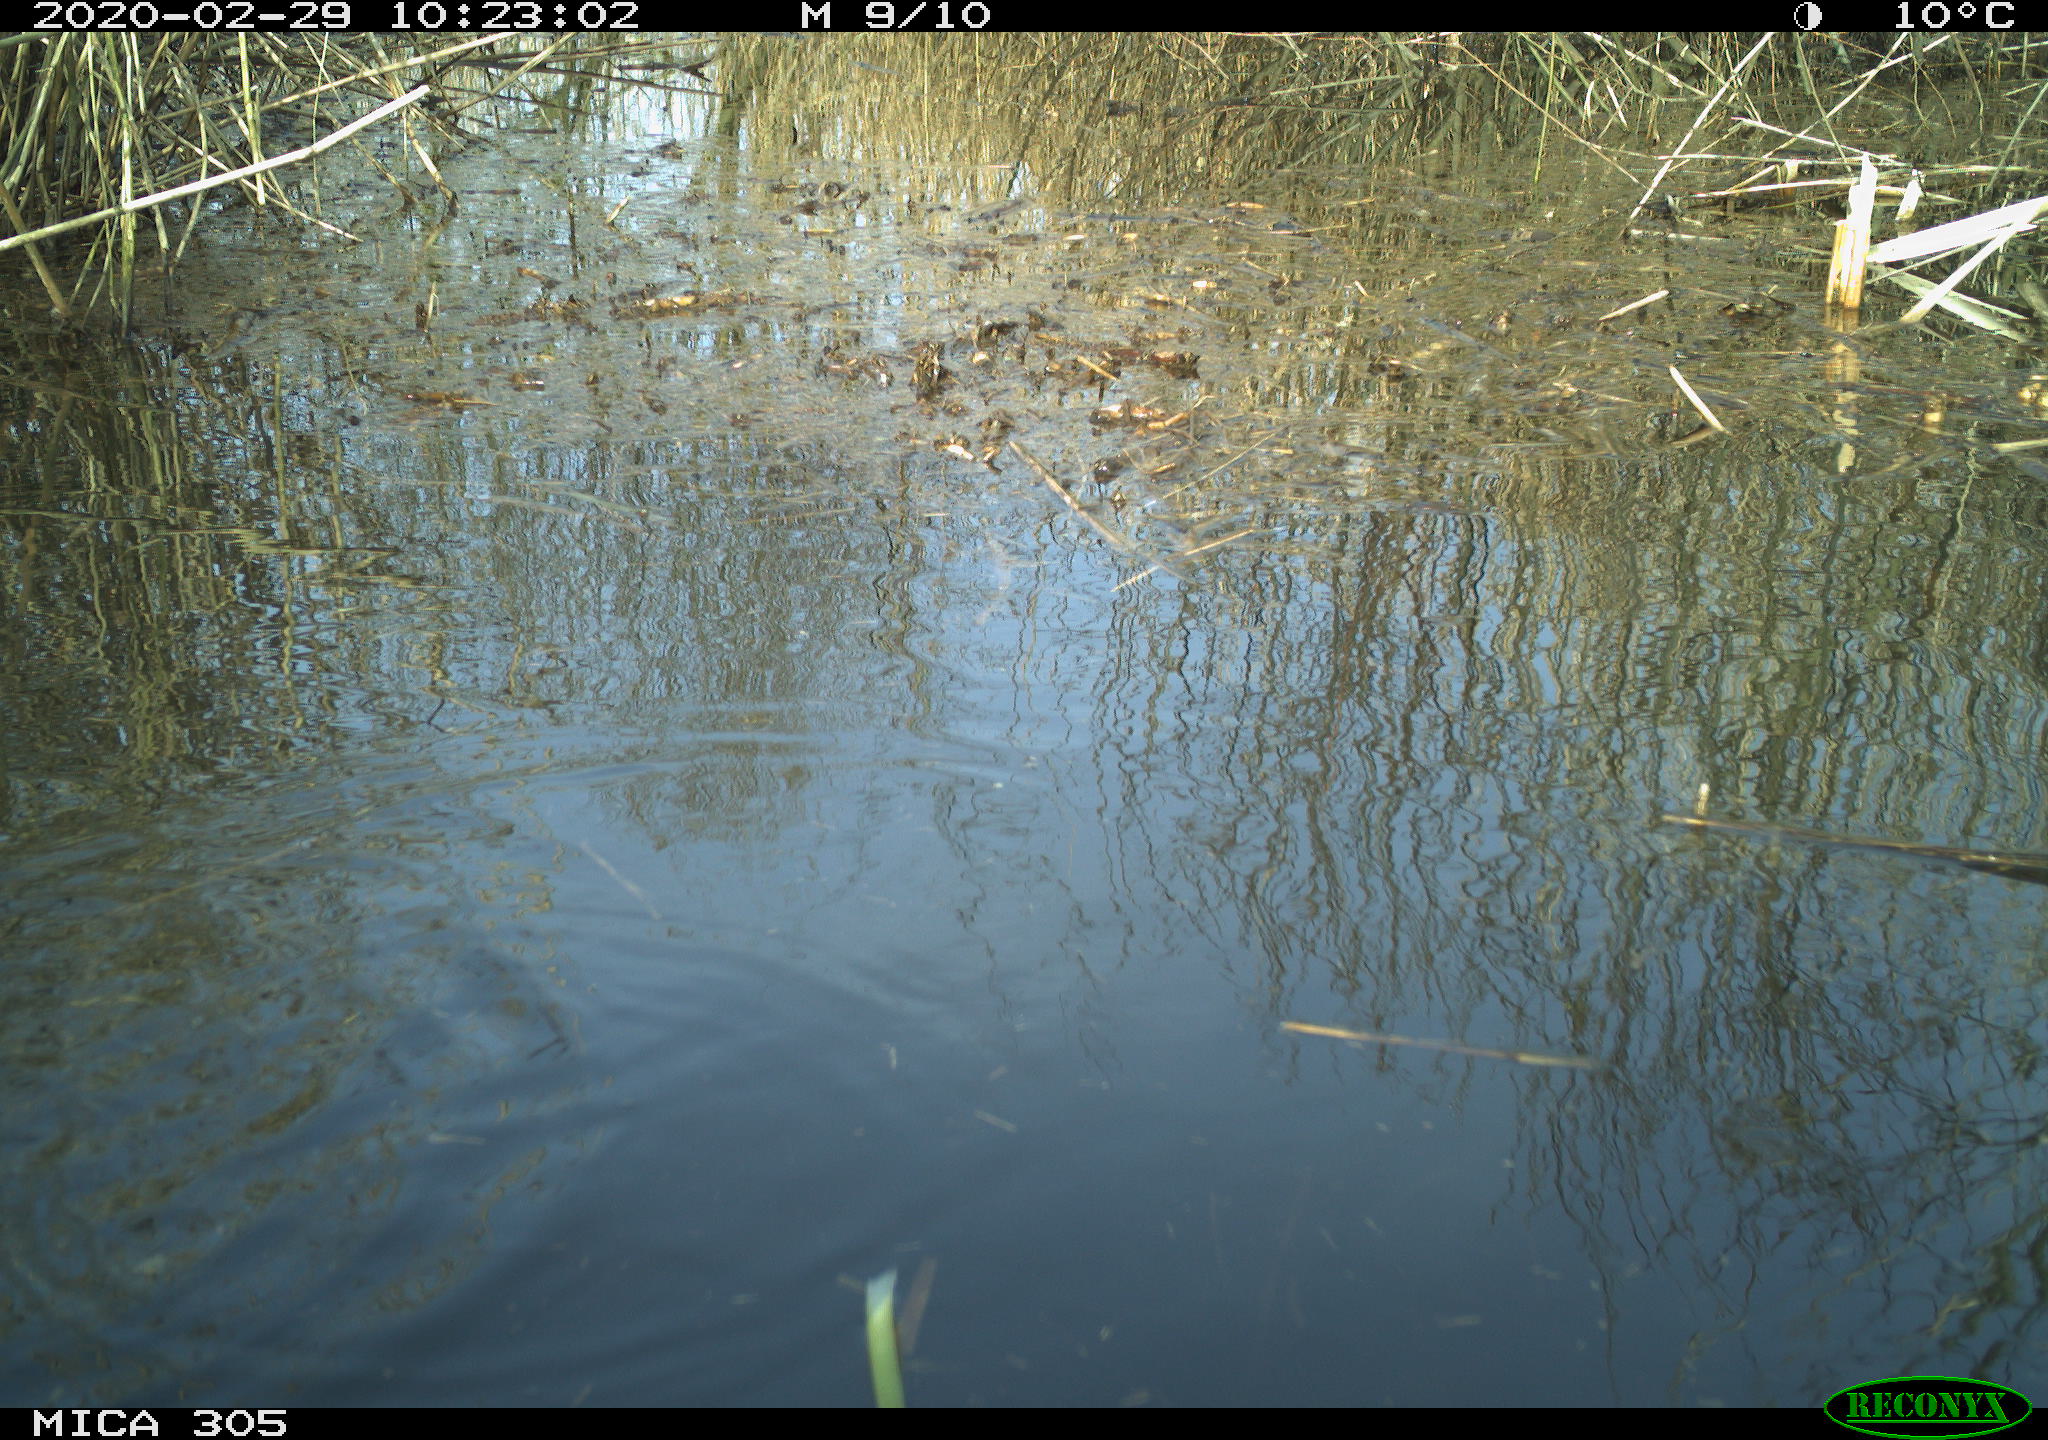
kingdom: Animalia
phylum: Chordata
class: Aves
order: Gruiformes
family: Rallidae
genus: Fulica
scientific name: Fulica atra
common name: Eurasian coot
